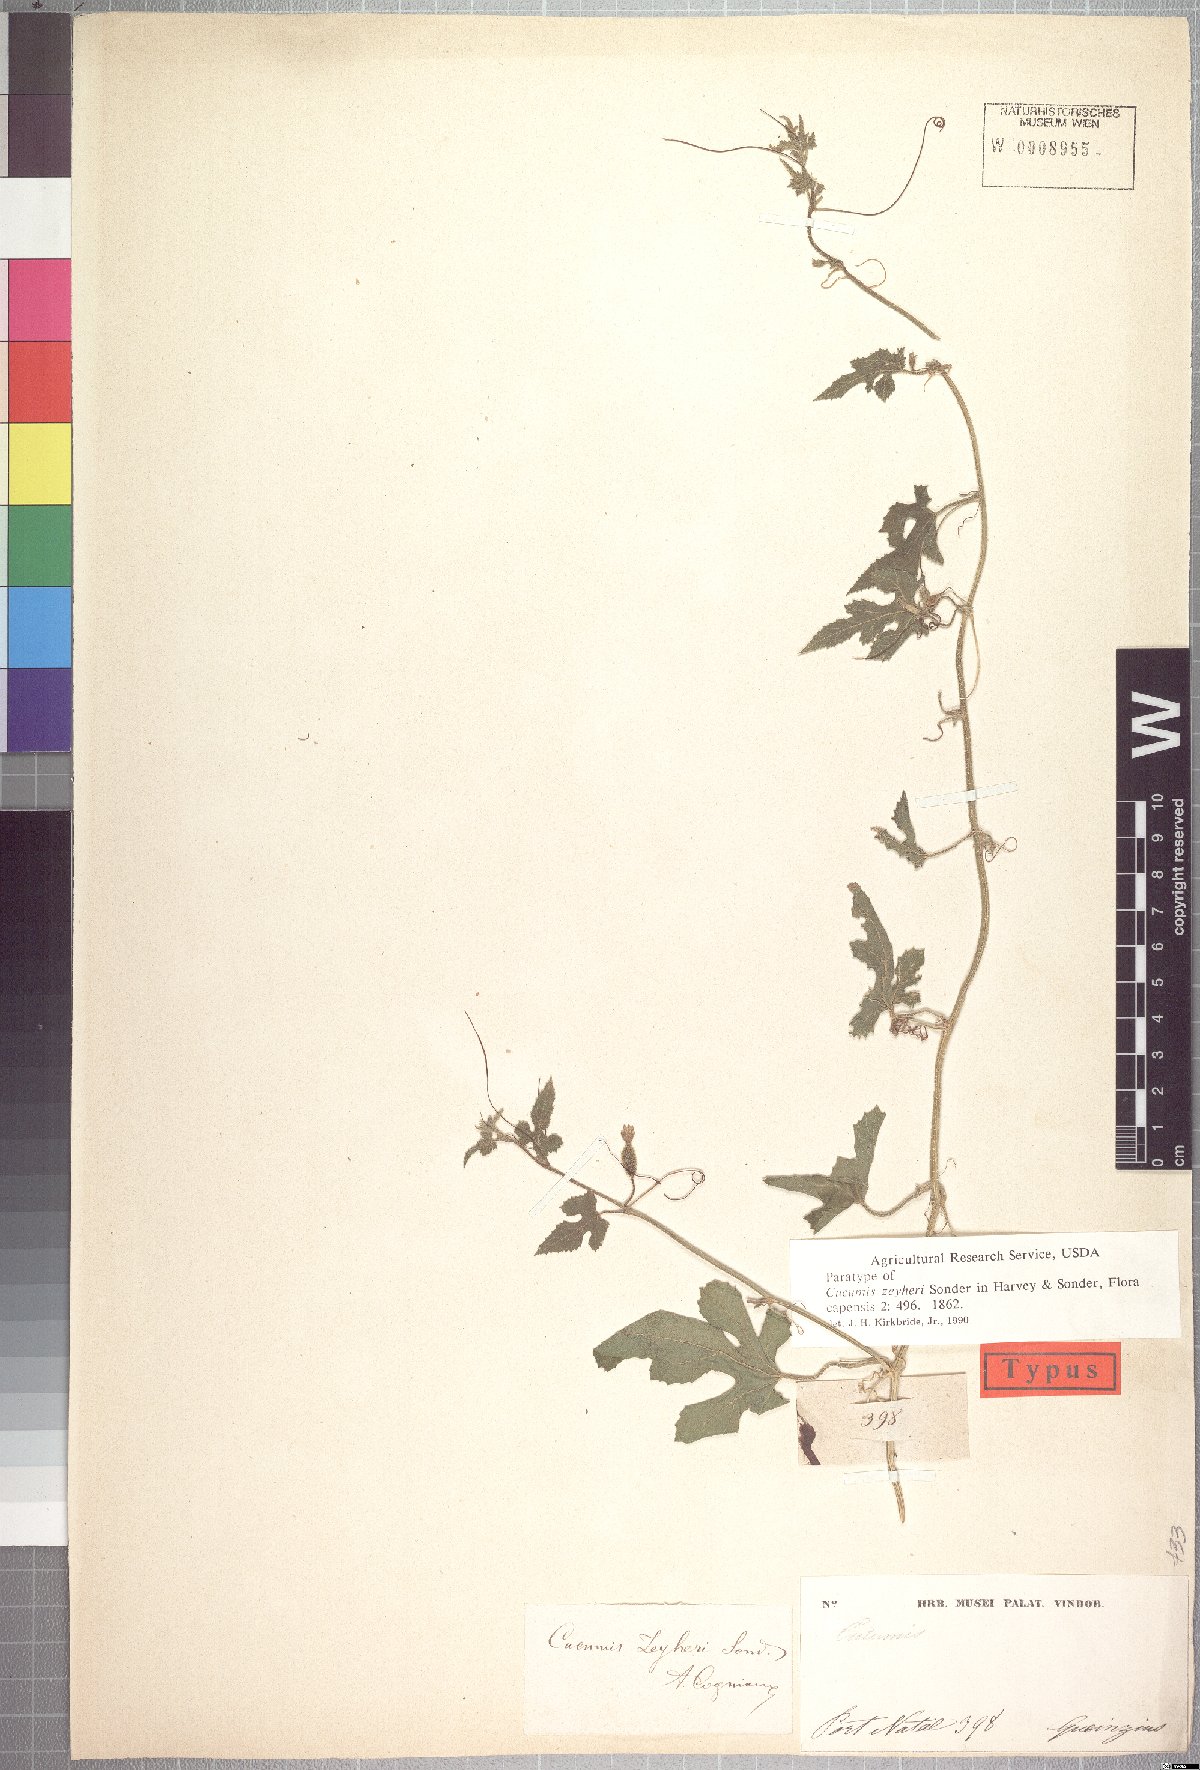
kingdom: Plantae
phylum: Tracheophyta
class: Magnoliopsida
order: Cucurbitales
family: Cucurbitaceae
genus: Cucumis
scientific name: Cucumis zeyheri
